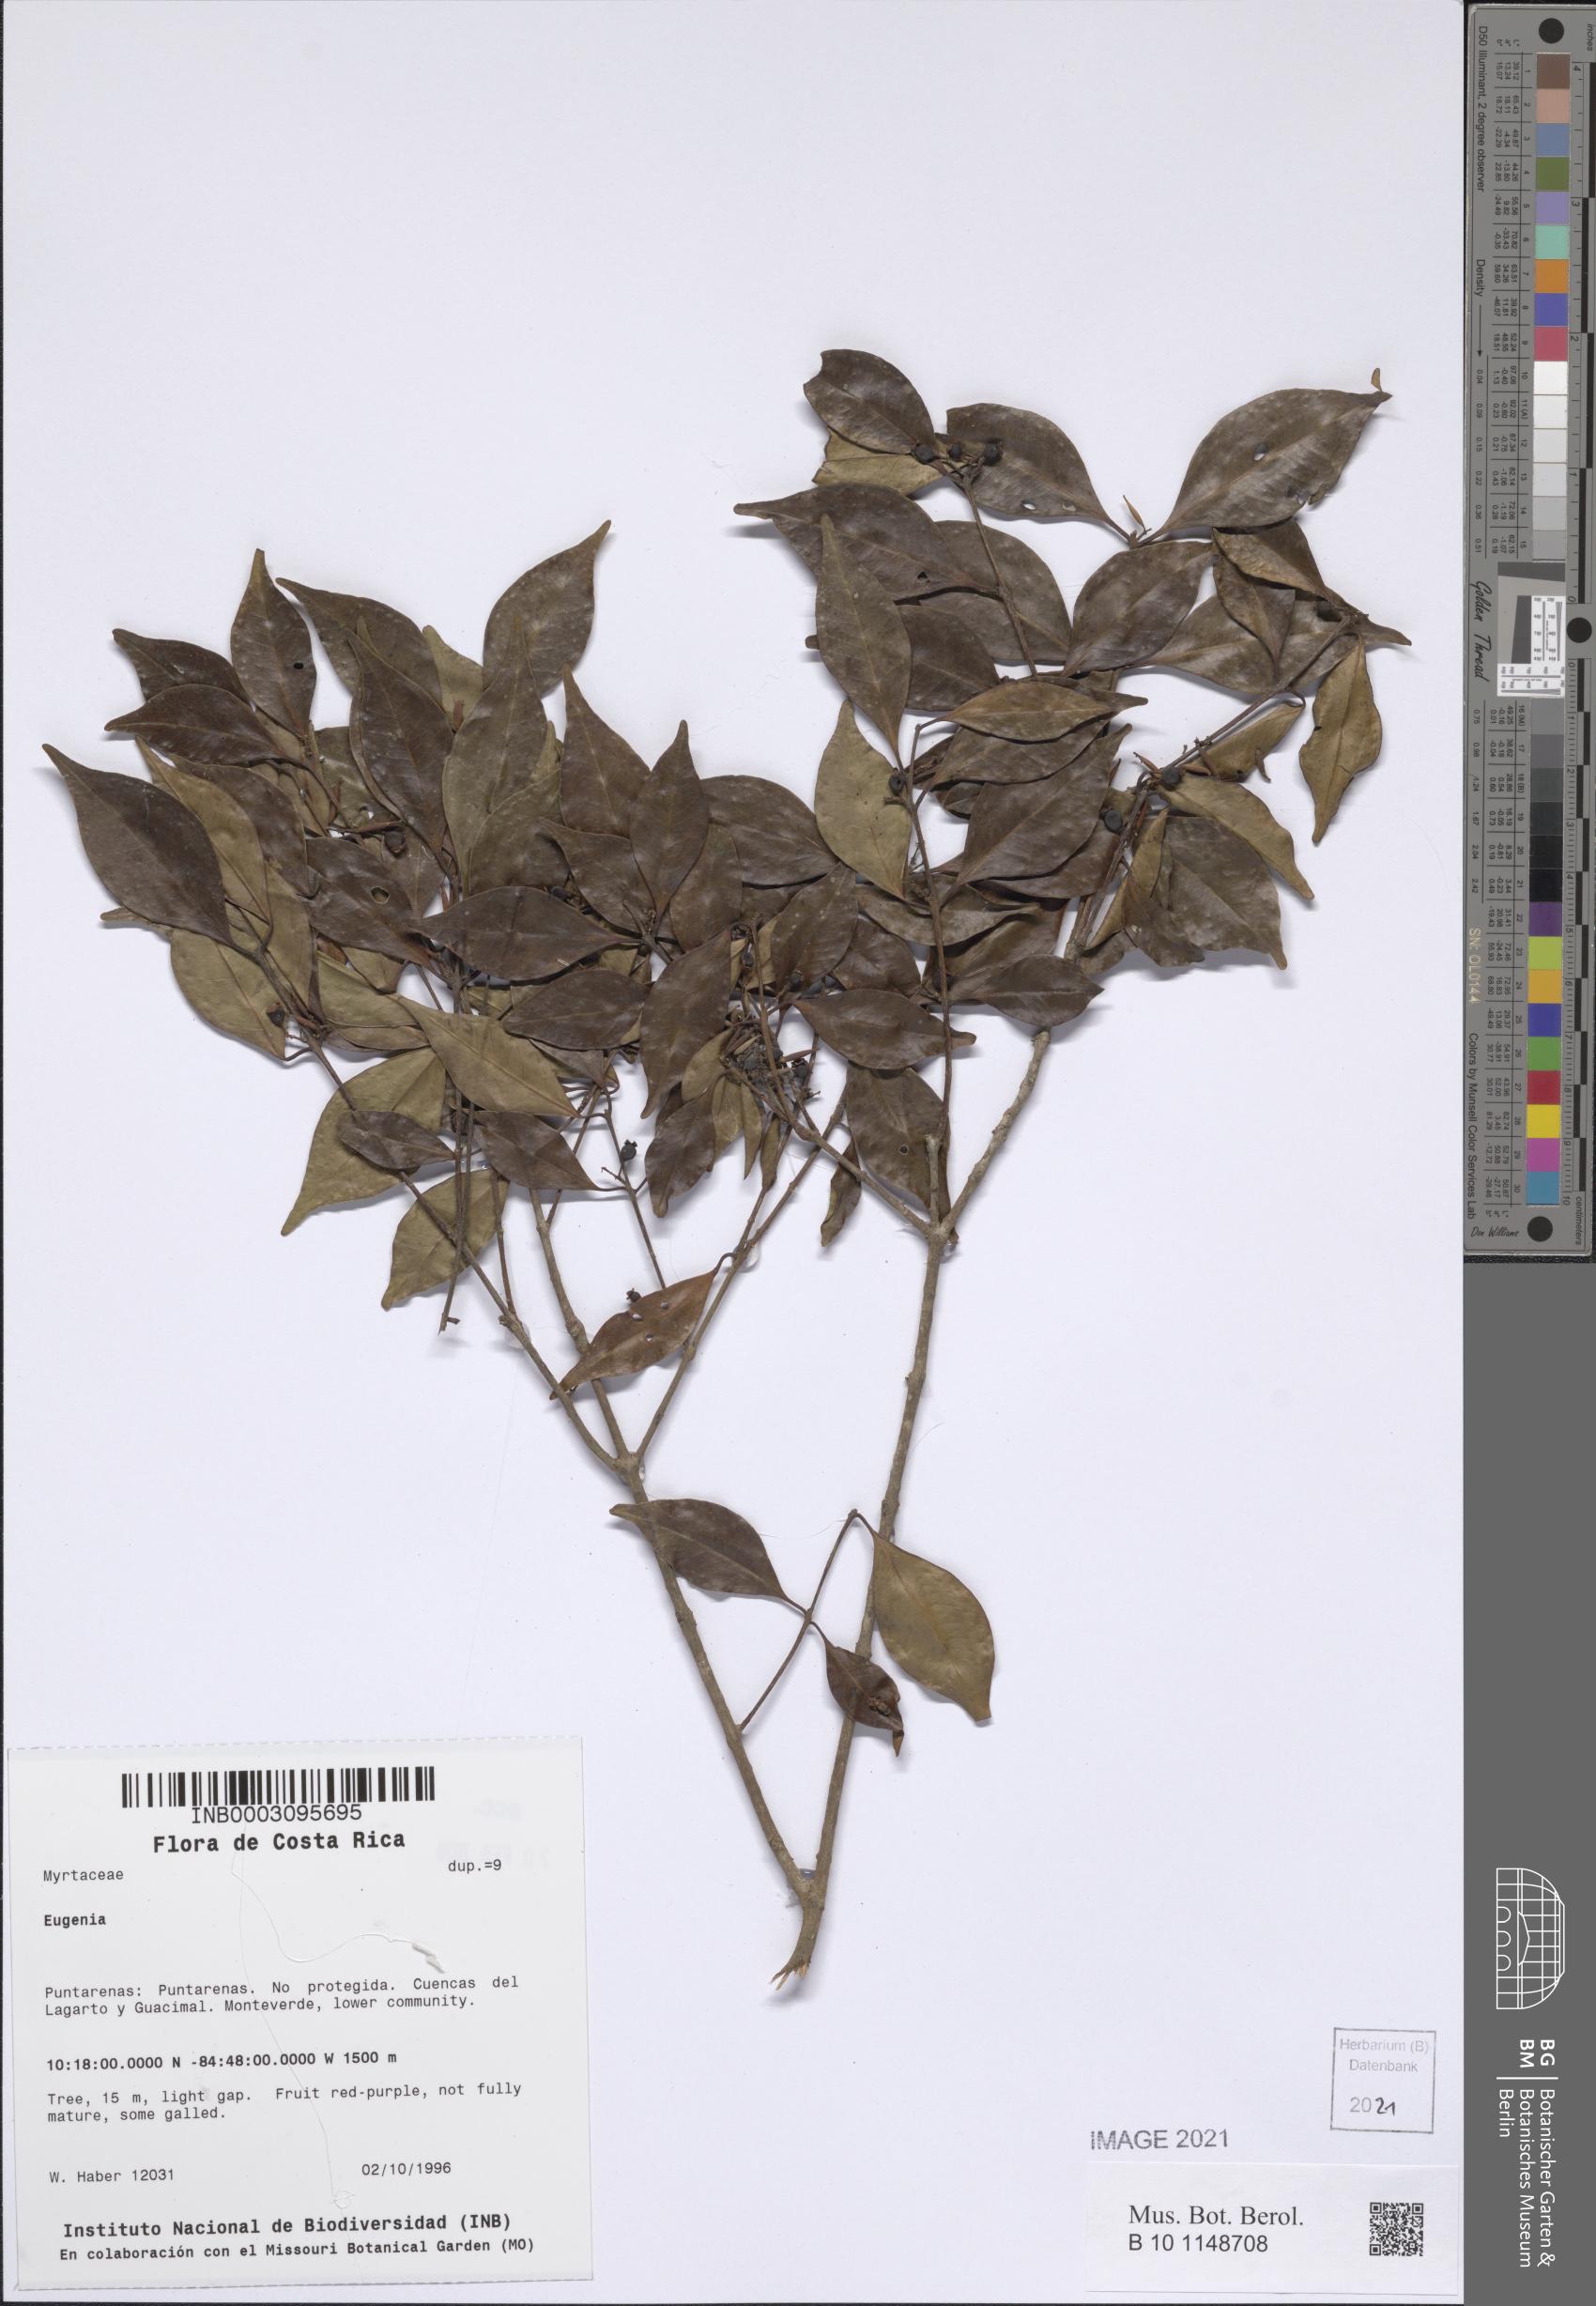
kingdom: Plantae
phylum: Tracheophyta
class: Magnoliopsida
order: Myrtales
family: Myrtaceae
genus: Eugenia
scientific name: Eugenia
